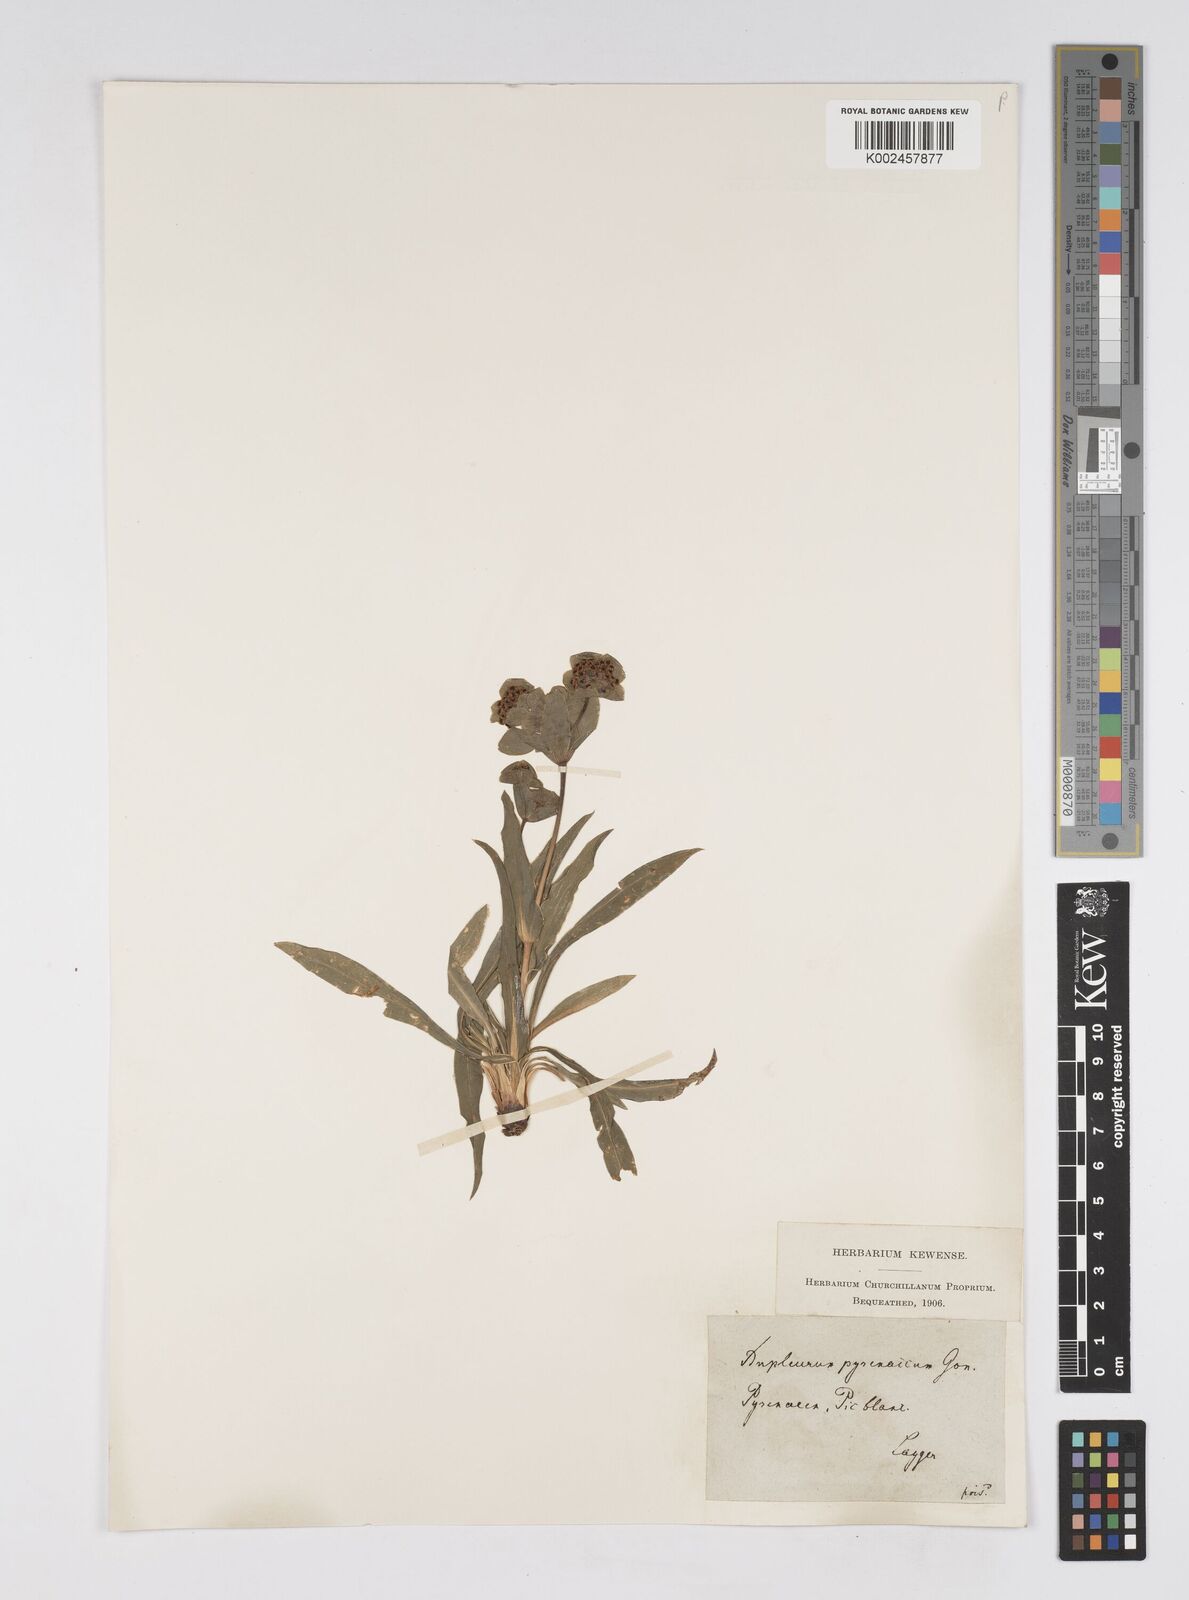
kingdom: Plantae
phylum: Tracheophyta
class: Magnoliopsida
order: Apiales
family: Apiaceae
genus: Bupleurum
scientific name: Bupleurum angulosum
